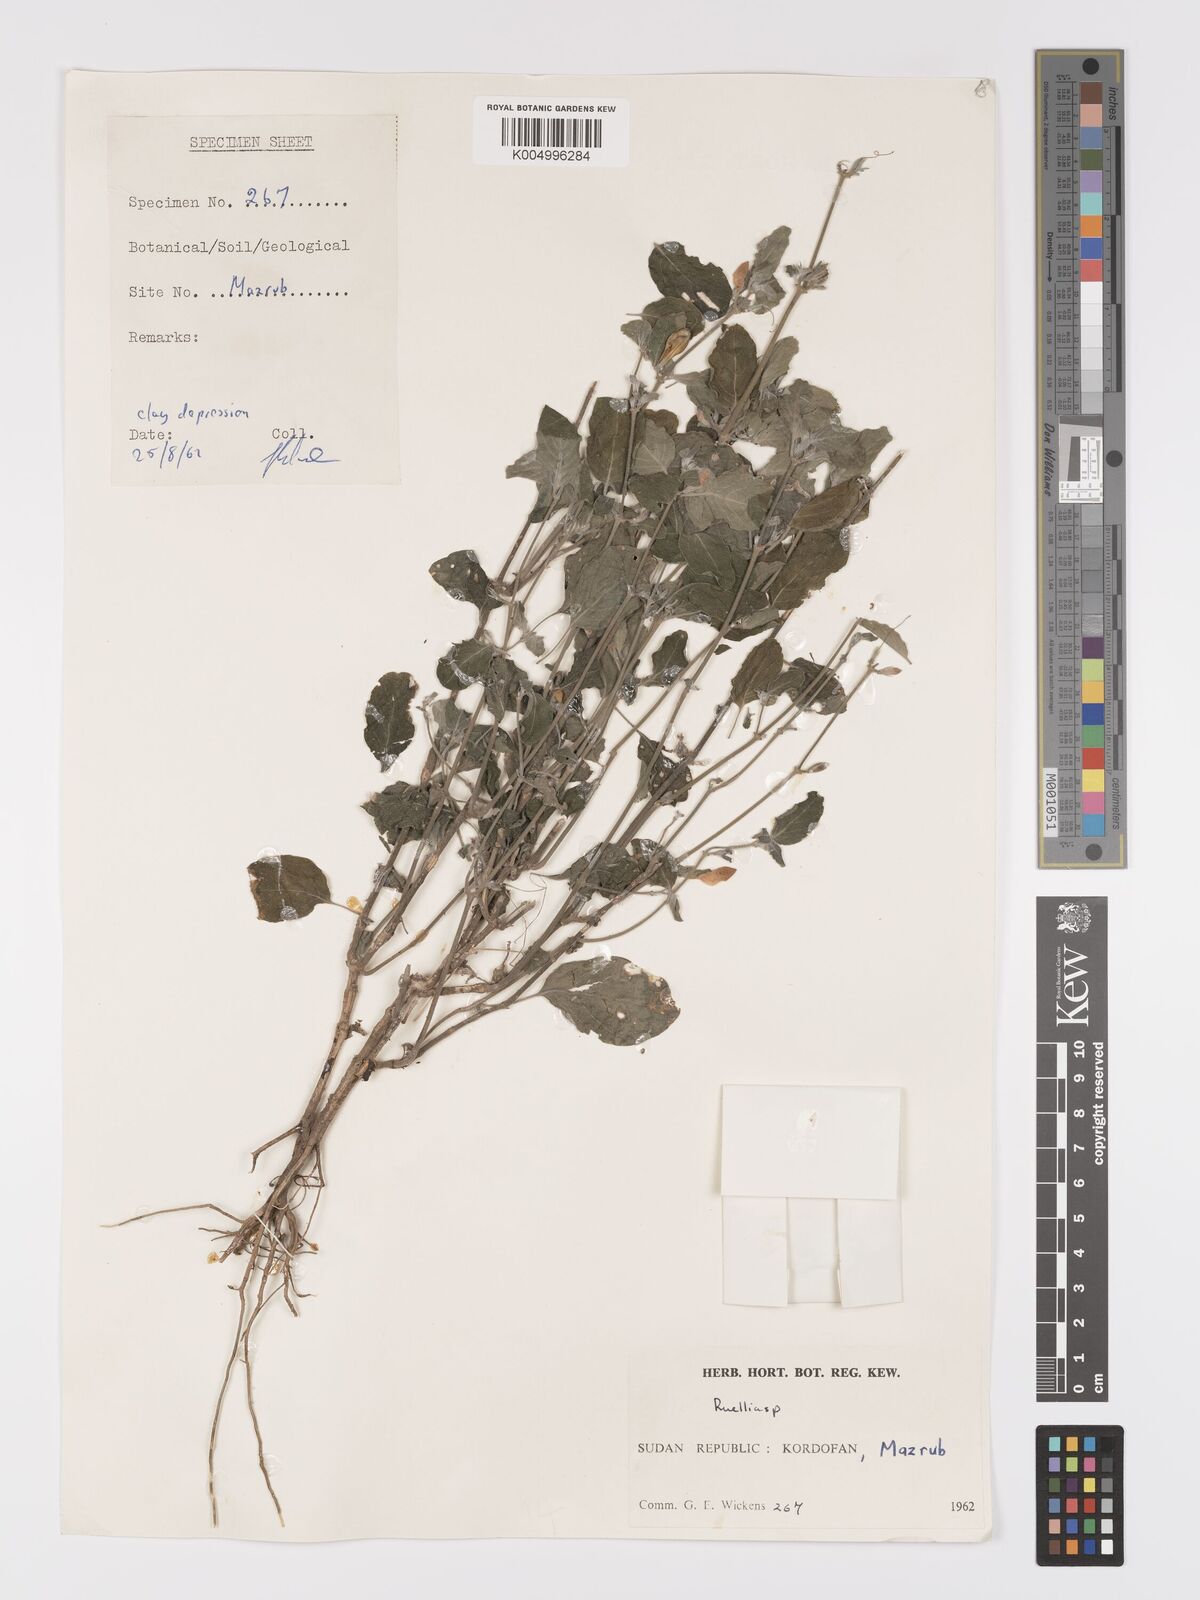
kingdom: Plantae
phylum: Tracheophyta
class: Magnoliopsida
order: Lamiales
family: Acanthaceae
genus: Ruellia
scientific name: Ruellia patula
